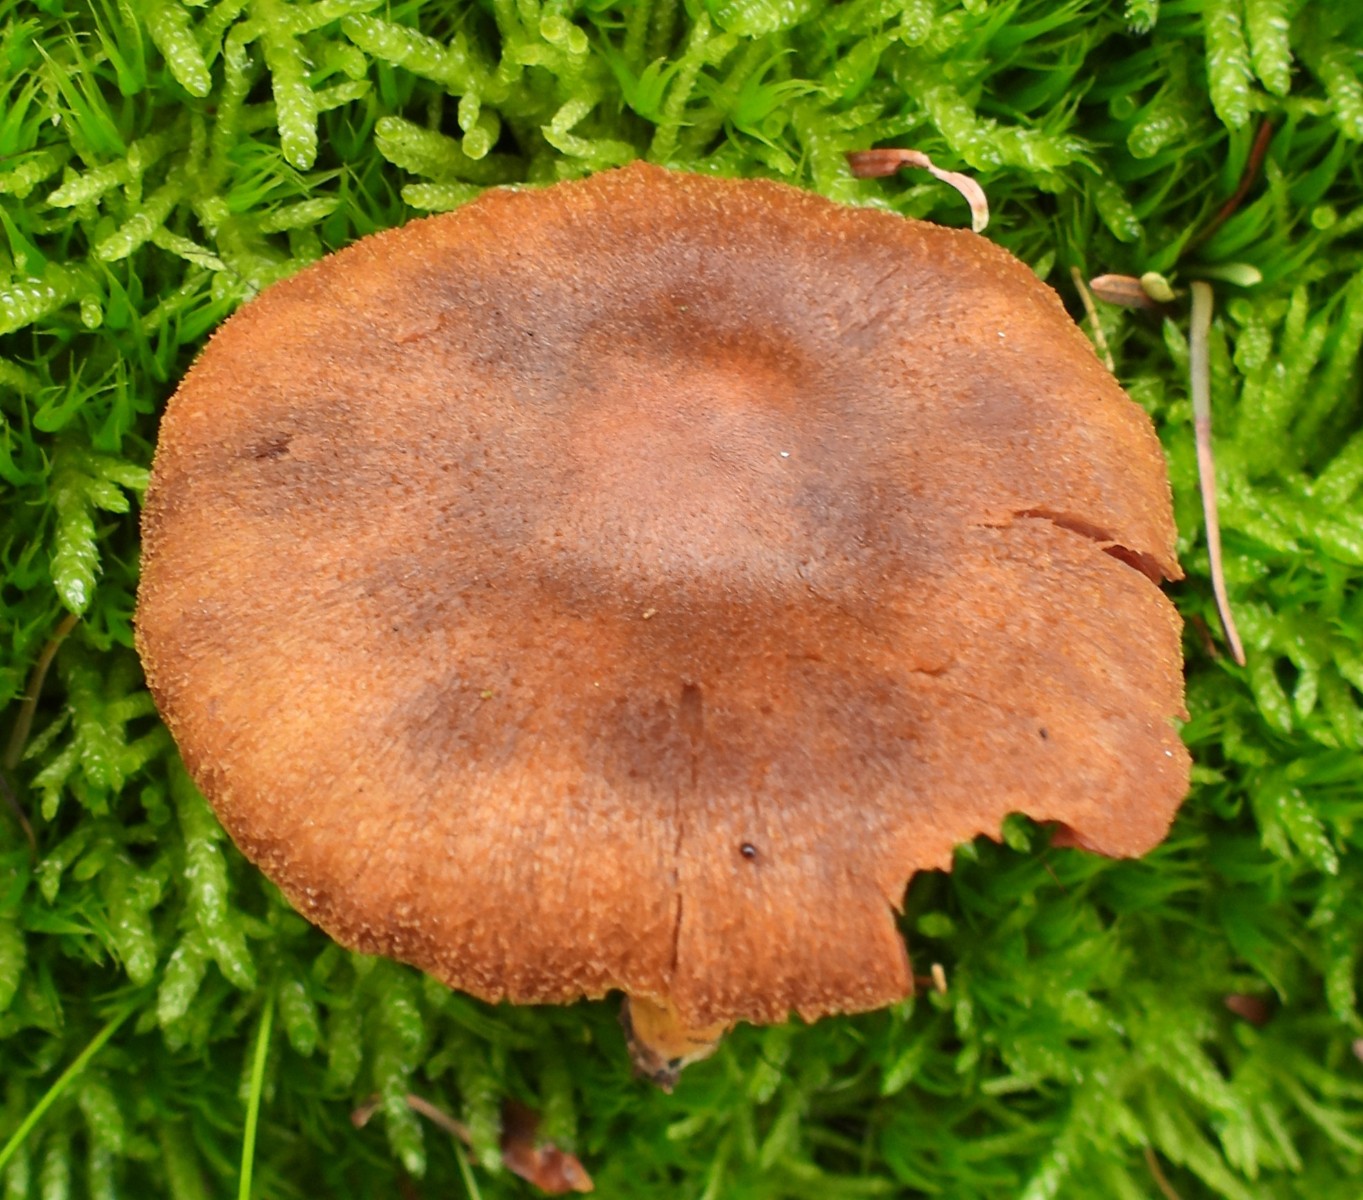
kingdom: Fungi
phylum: Basidiomycota
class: Agaricomycetes
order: Agaricales
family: Cortinariaceae
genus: Cortinarius
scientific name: Cortinarius
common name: cinnoberbladet slørhat
